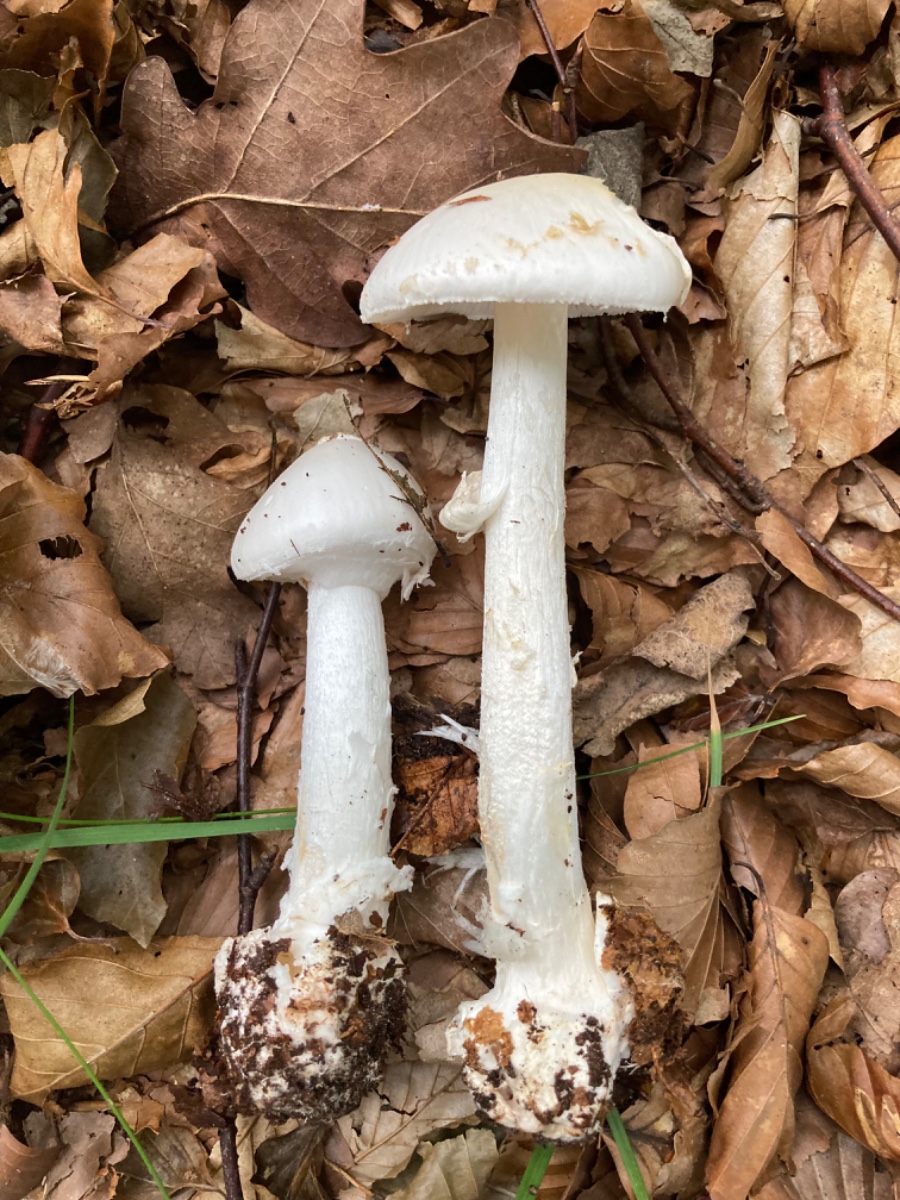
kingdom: Fungi
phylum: Basidiomycota
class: Agaricomycetes
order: Agaricales
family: Amanitaceae
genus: Amanita
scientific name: Amanita citrina
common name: kugleknoldet fluesvamp
